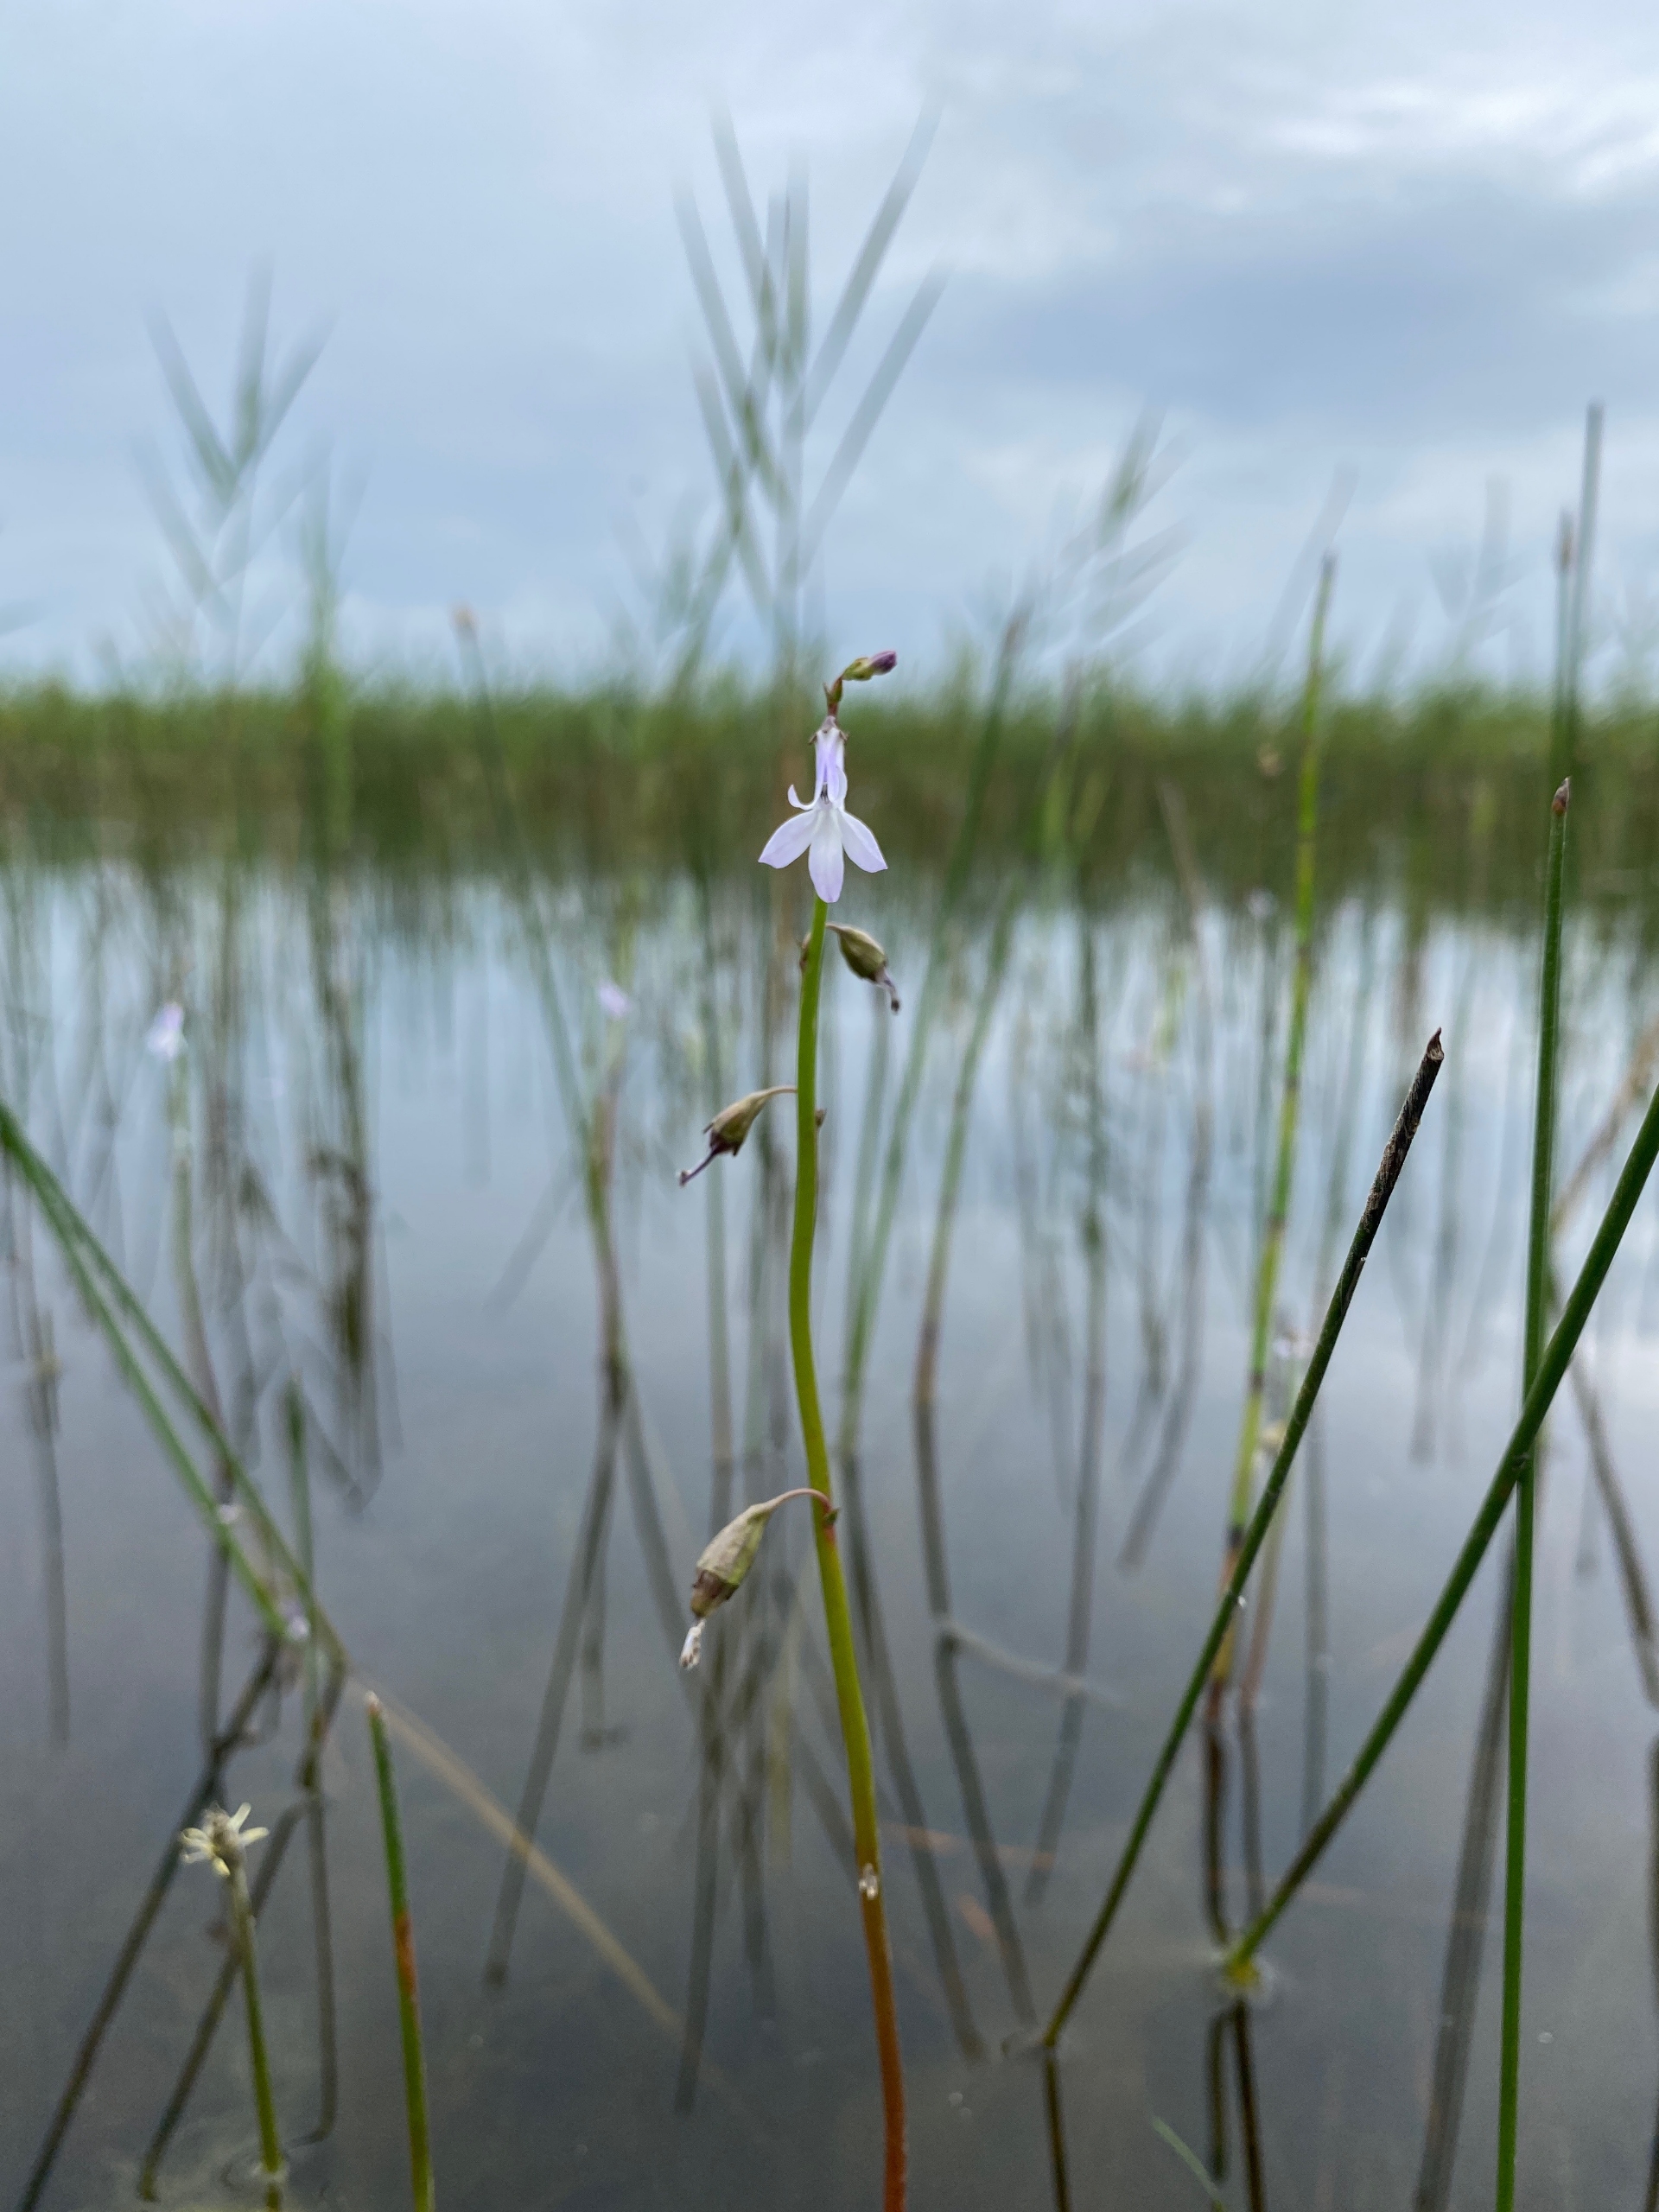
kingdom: Plantae
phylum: Tracheophyta
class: Magnoliopsida
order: Asterales
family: Campanulaceae
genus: Lobelia
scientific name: Lobelia dortmanna
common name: Tvepibet lobelie
